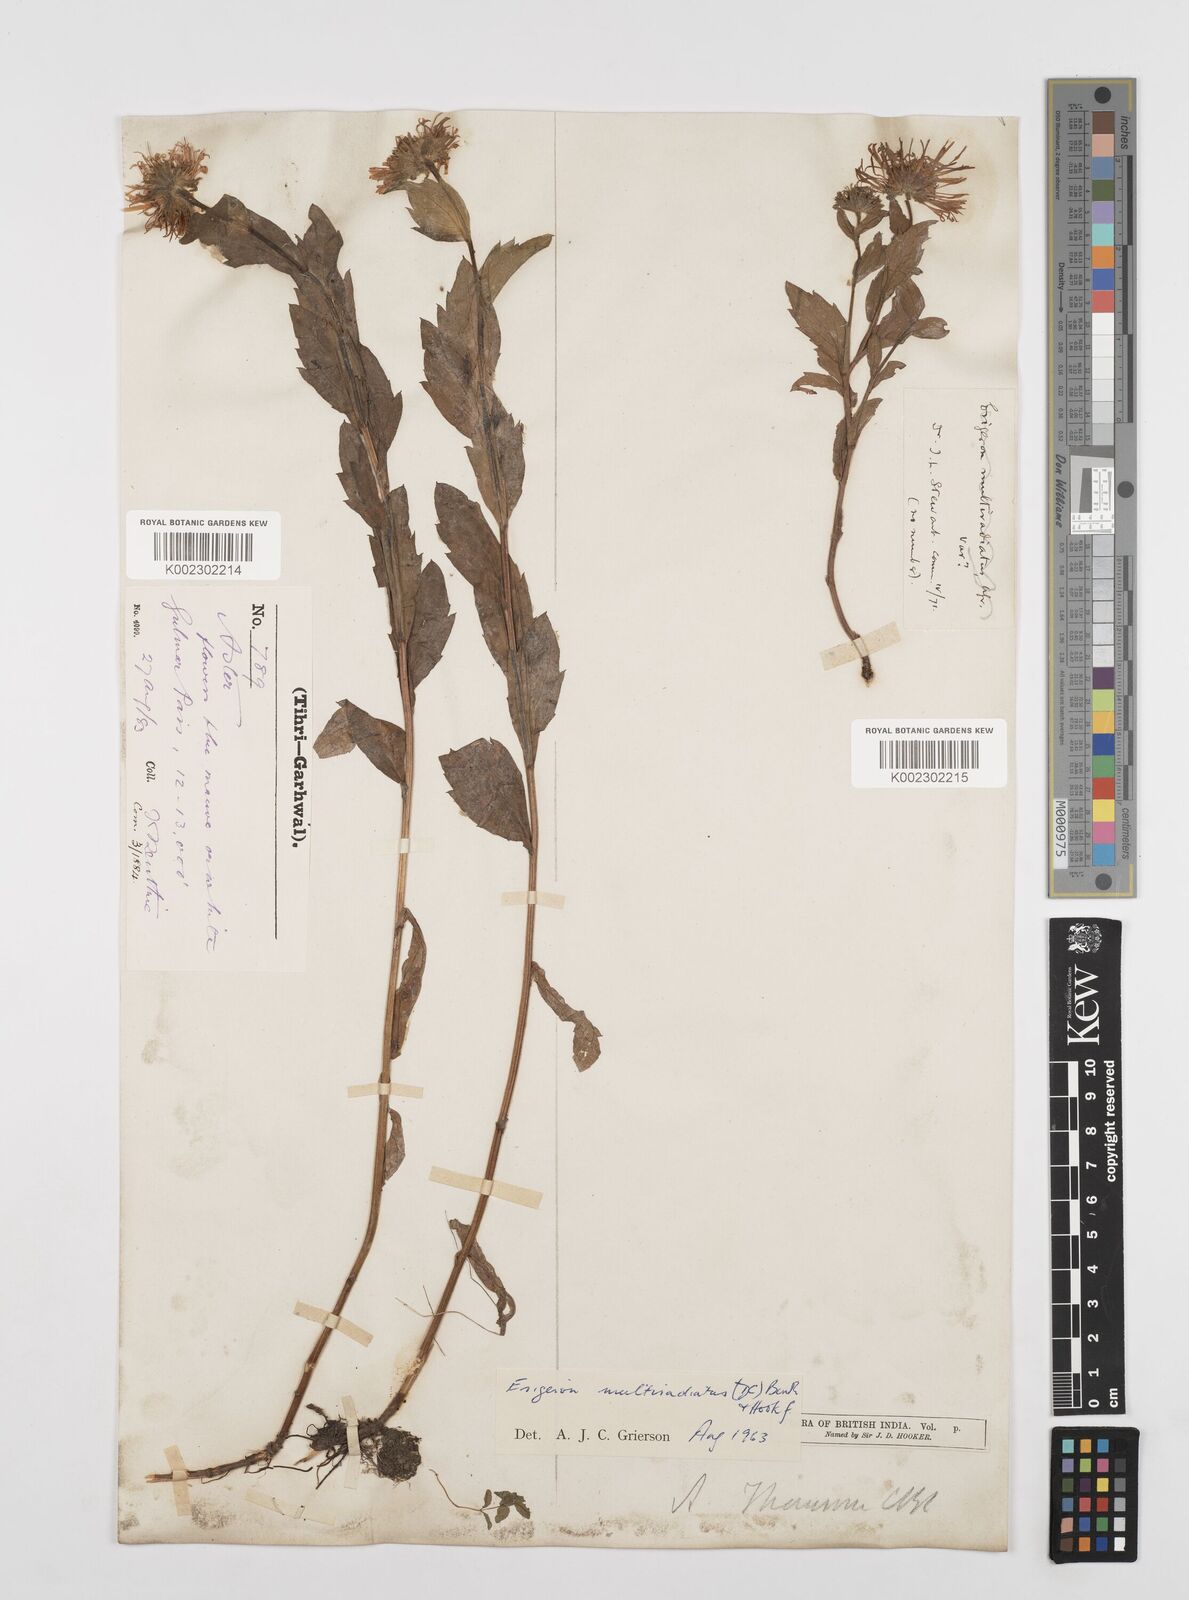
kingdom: Plantae
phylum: Tracheophyta
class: Magnoliopsida
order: Asterales
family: Asteraceae
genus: Erigeron
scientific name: Erigeron multiradiatus
